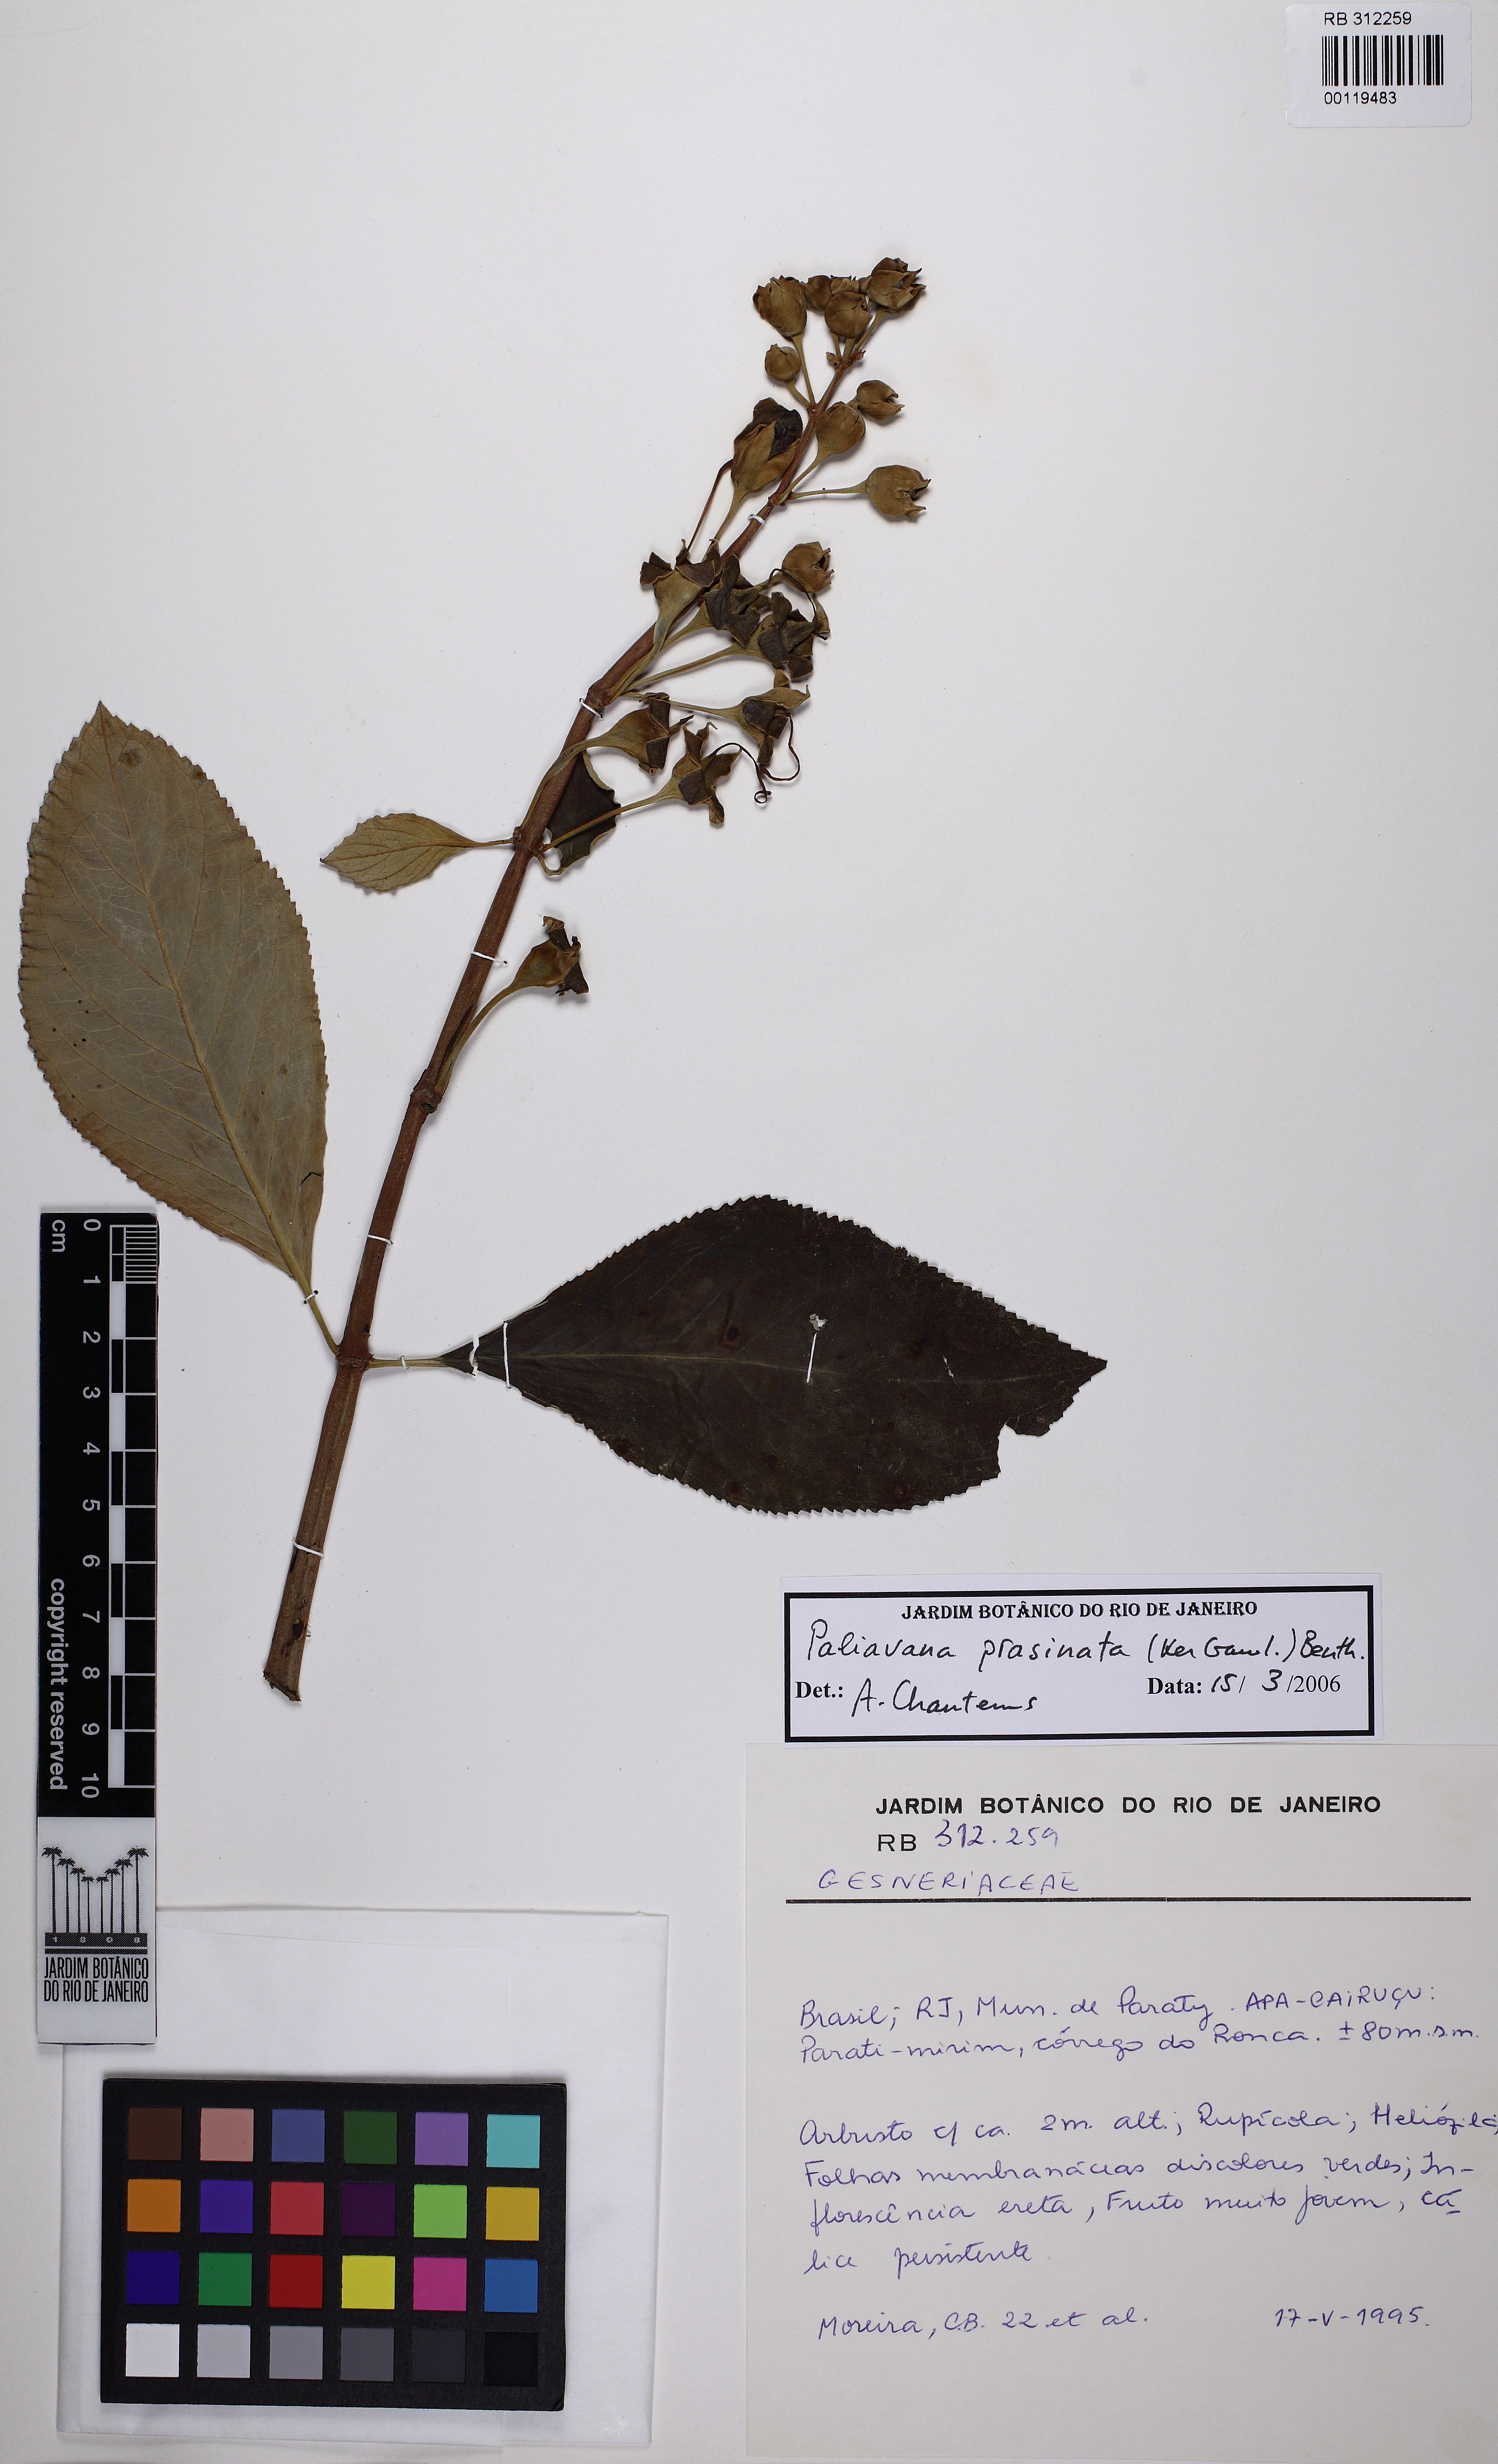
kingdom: Plantae
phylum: Tracheophyta
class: Magnoliopsida
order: Lamiales
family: Gesneriaceae
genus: Paliavana
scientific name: Paliavana prasinata
